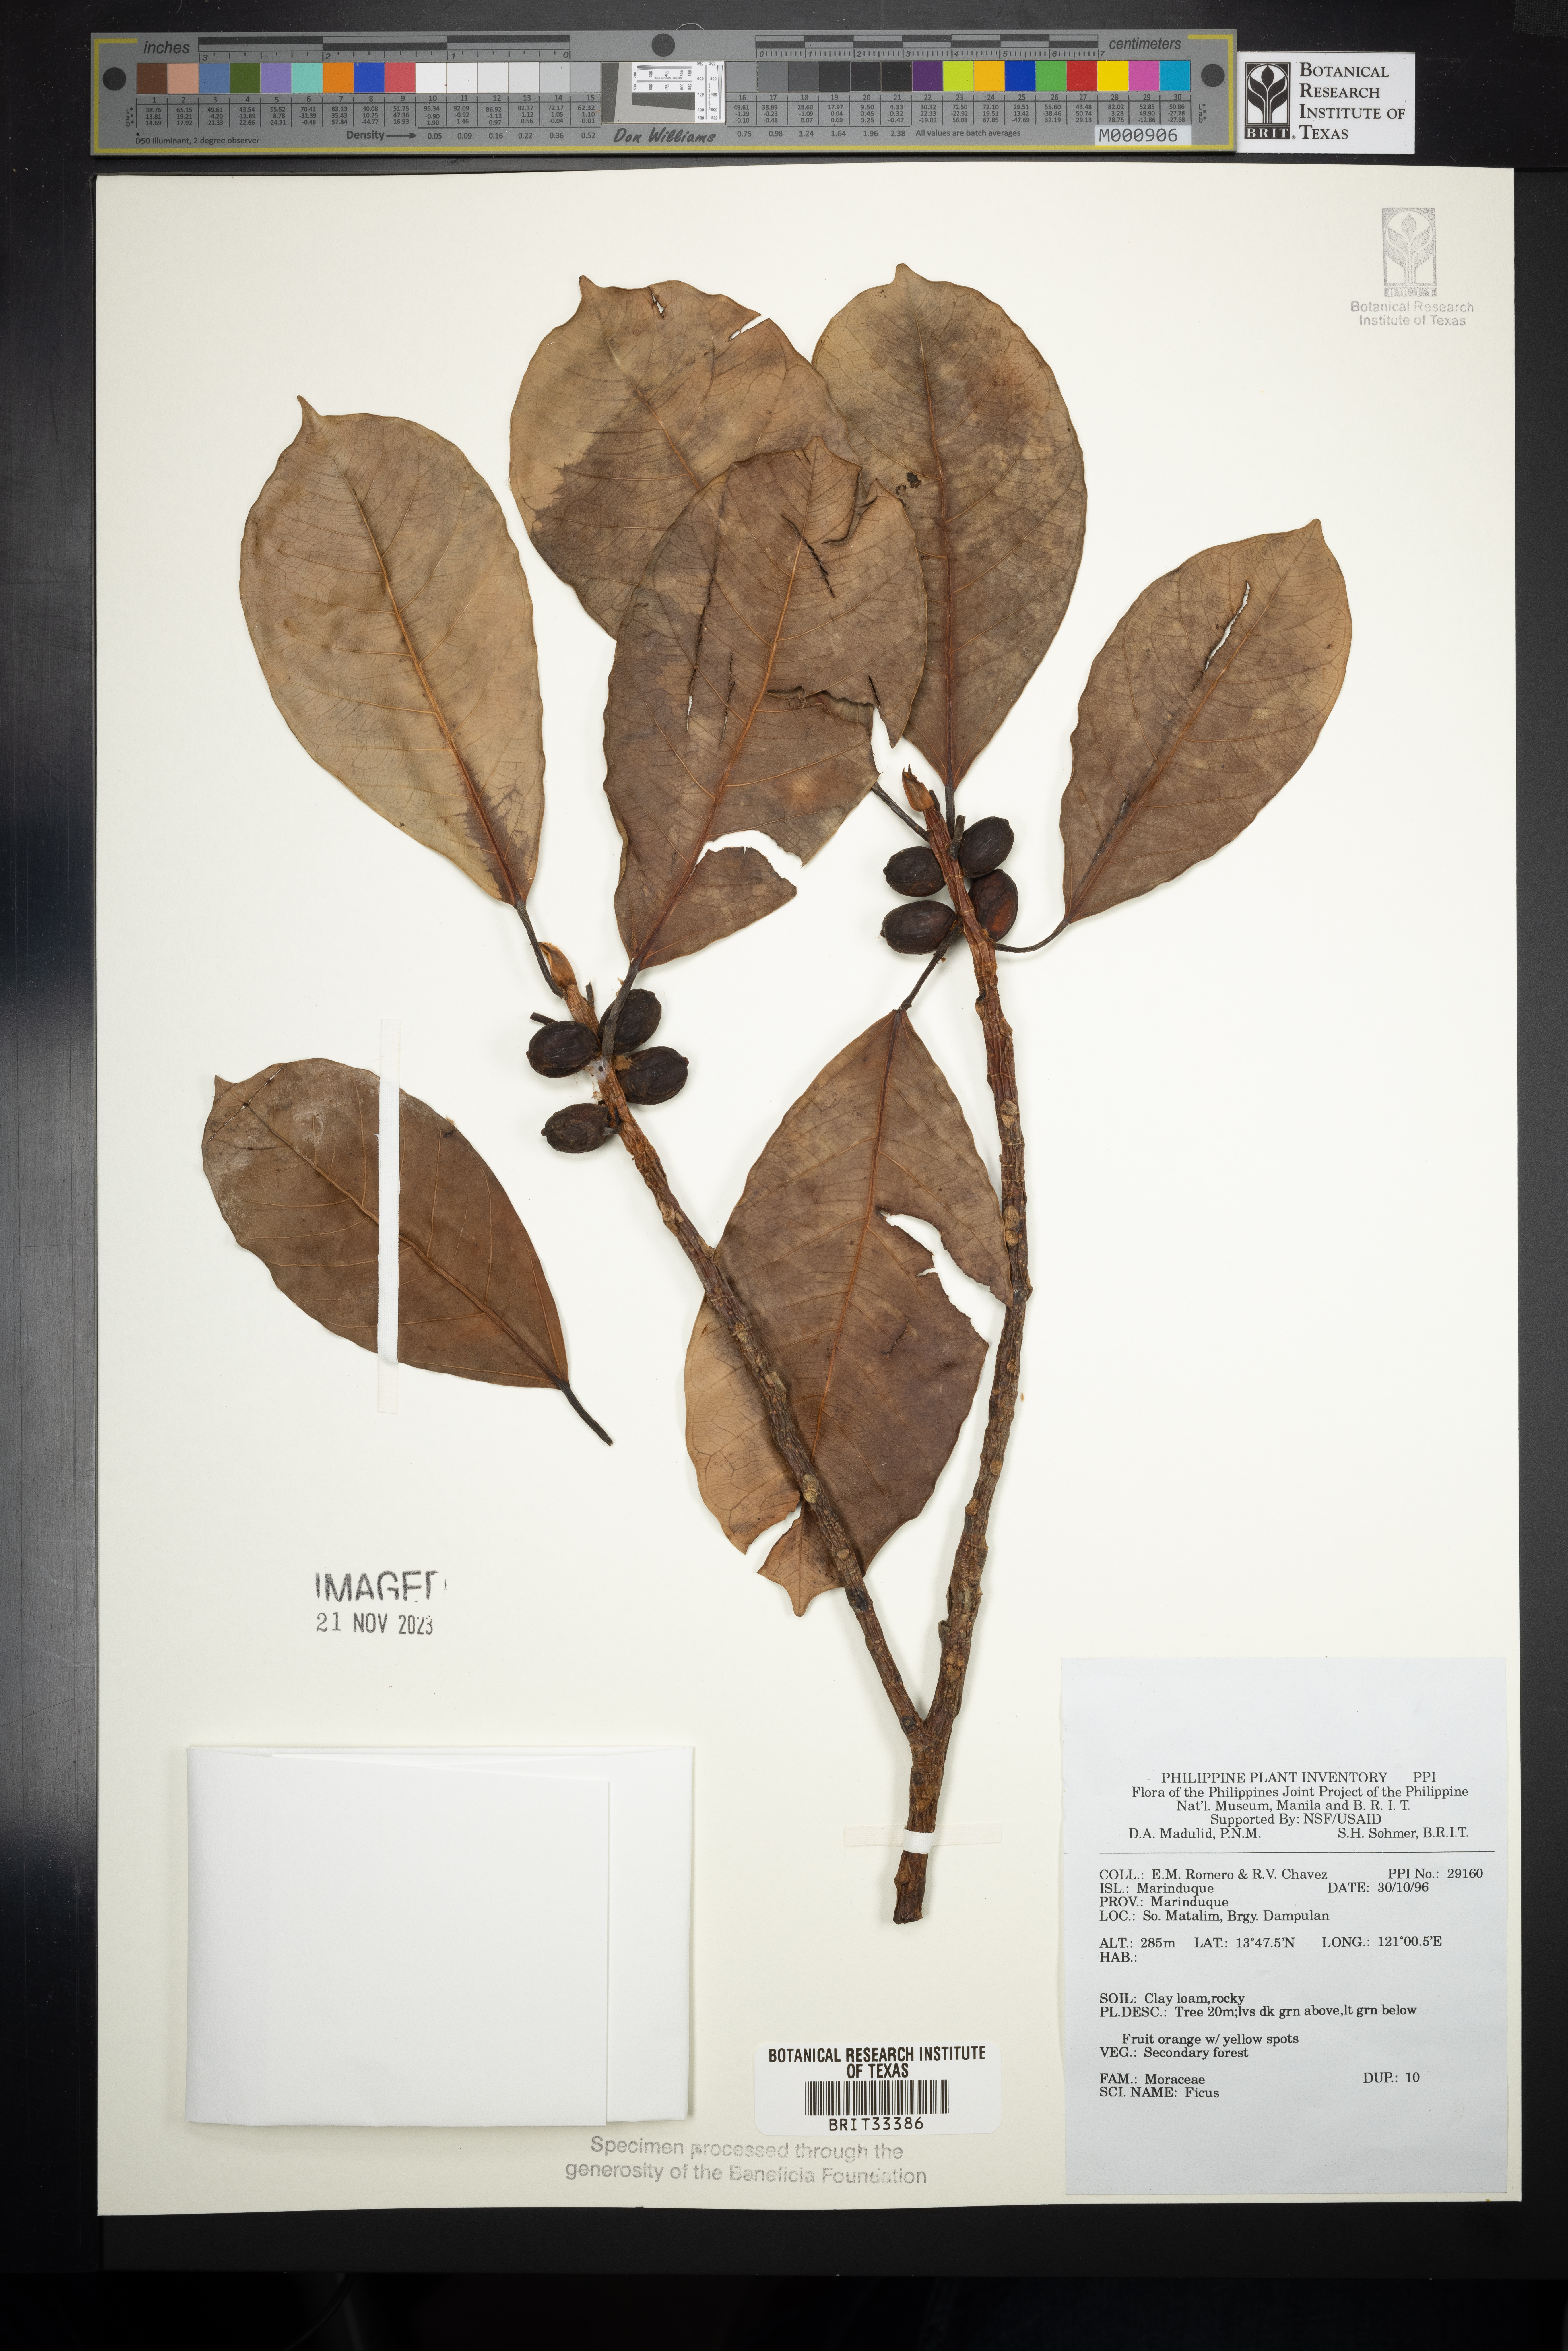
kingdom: Plantae
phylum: Tracheophyta
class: Magnoliopsida
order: Rosales
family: Moraceae
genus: Ficus
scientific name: Ficus
